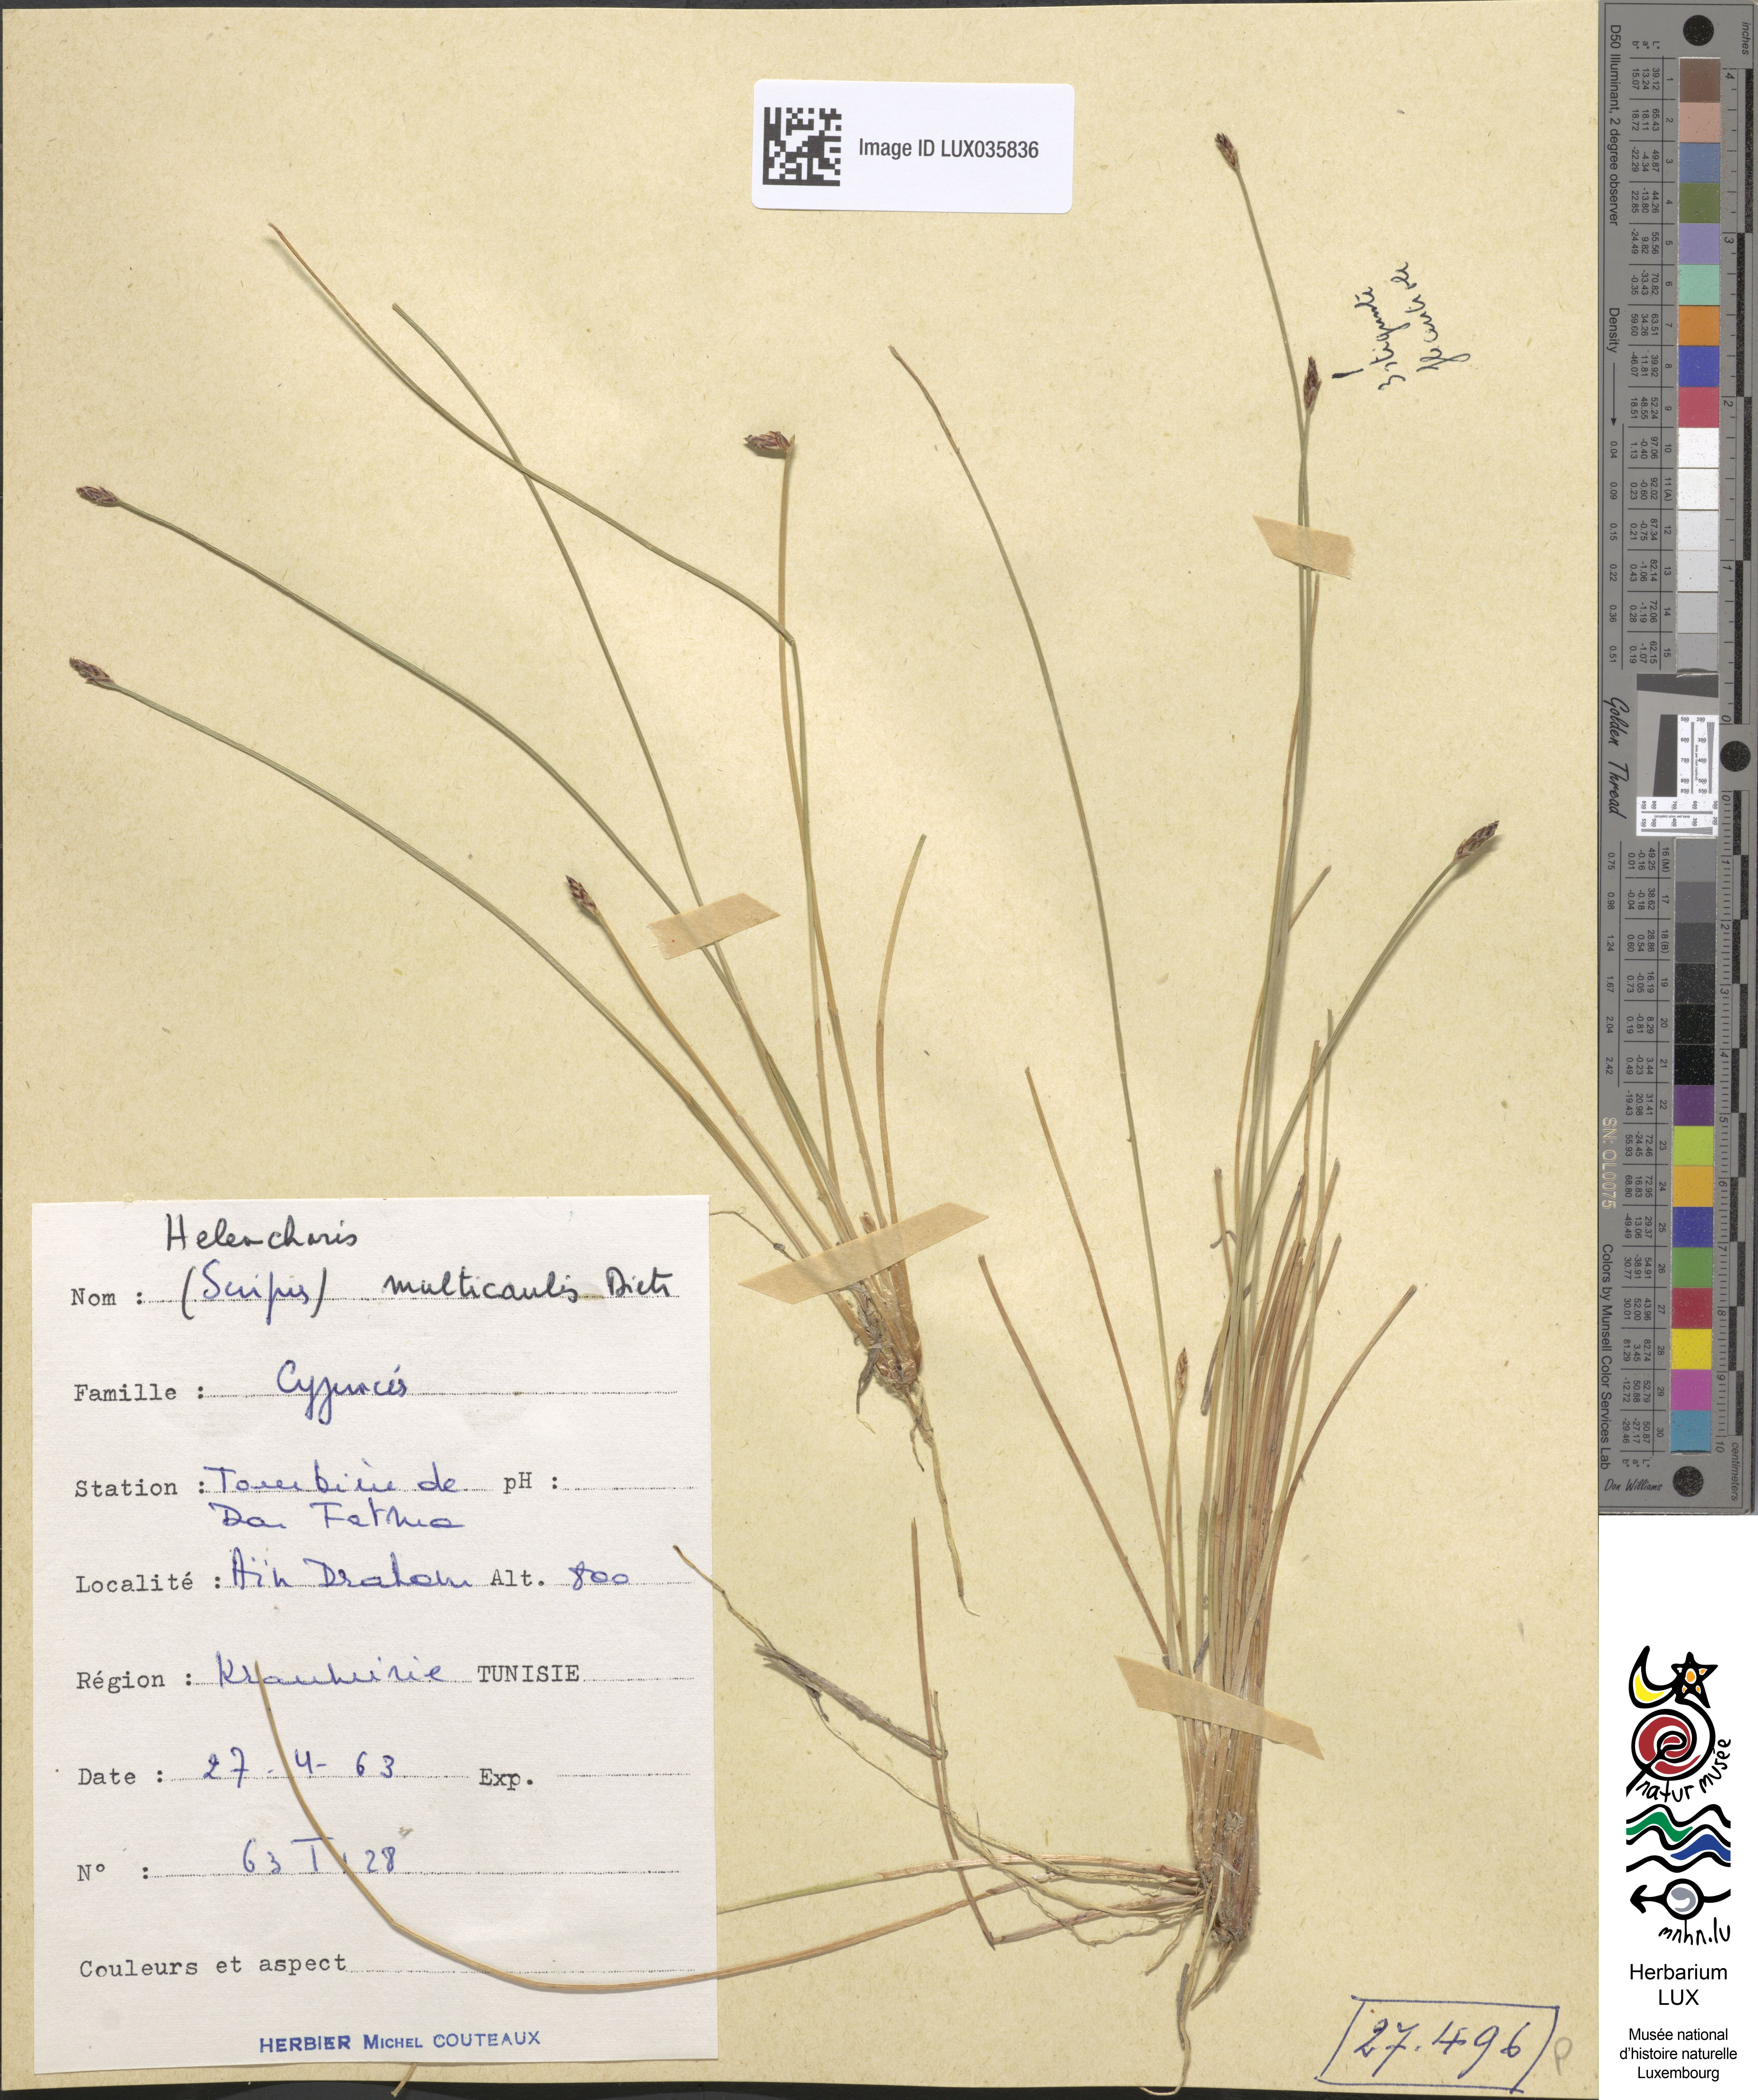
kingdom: Plantae
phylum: Tracheophyta
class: Liliopsida
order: Poales
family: Cyperaceae
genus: Eleocharis
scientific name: Eleocharis multicaulis
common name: Many-stalked spike-rush
